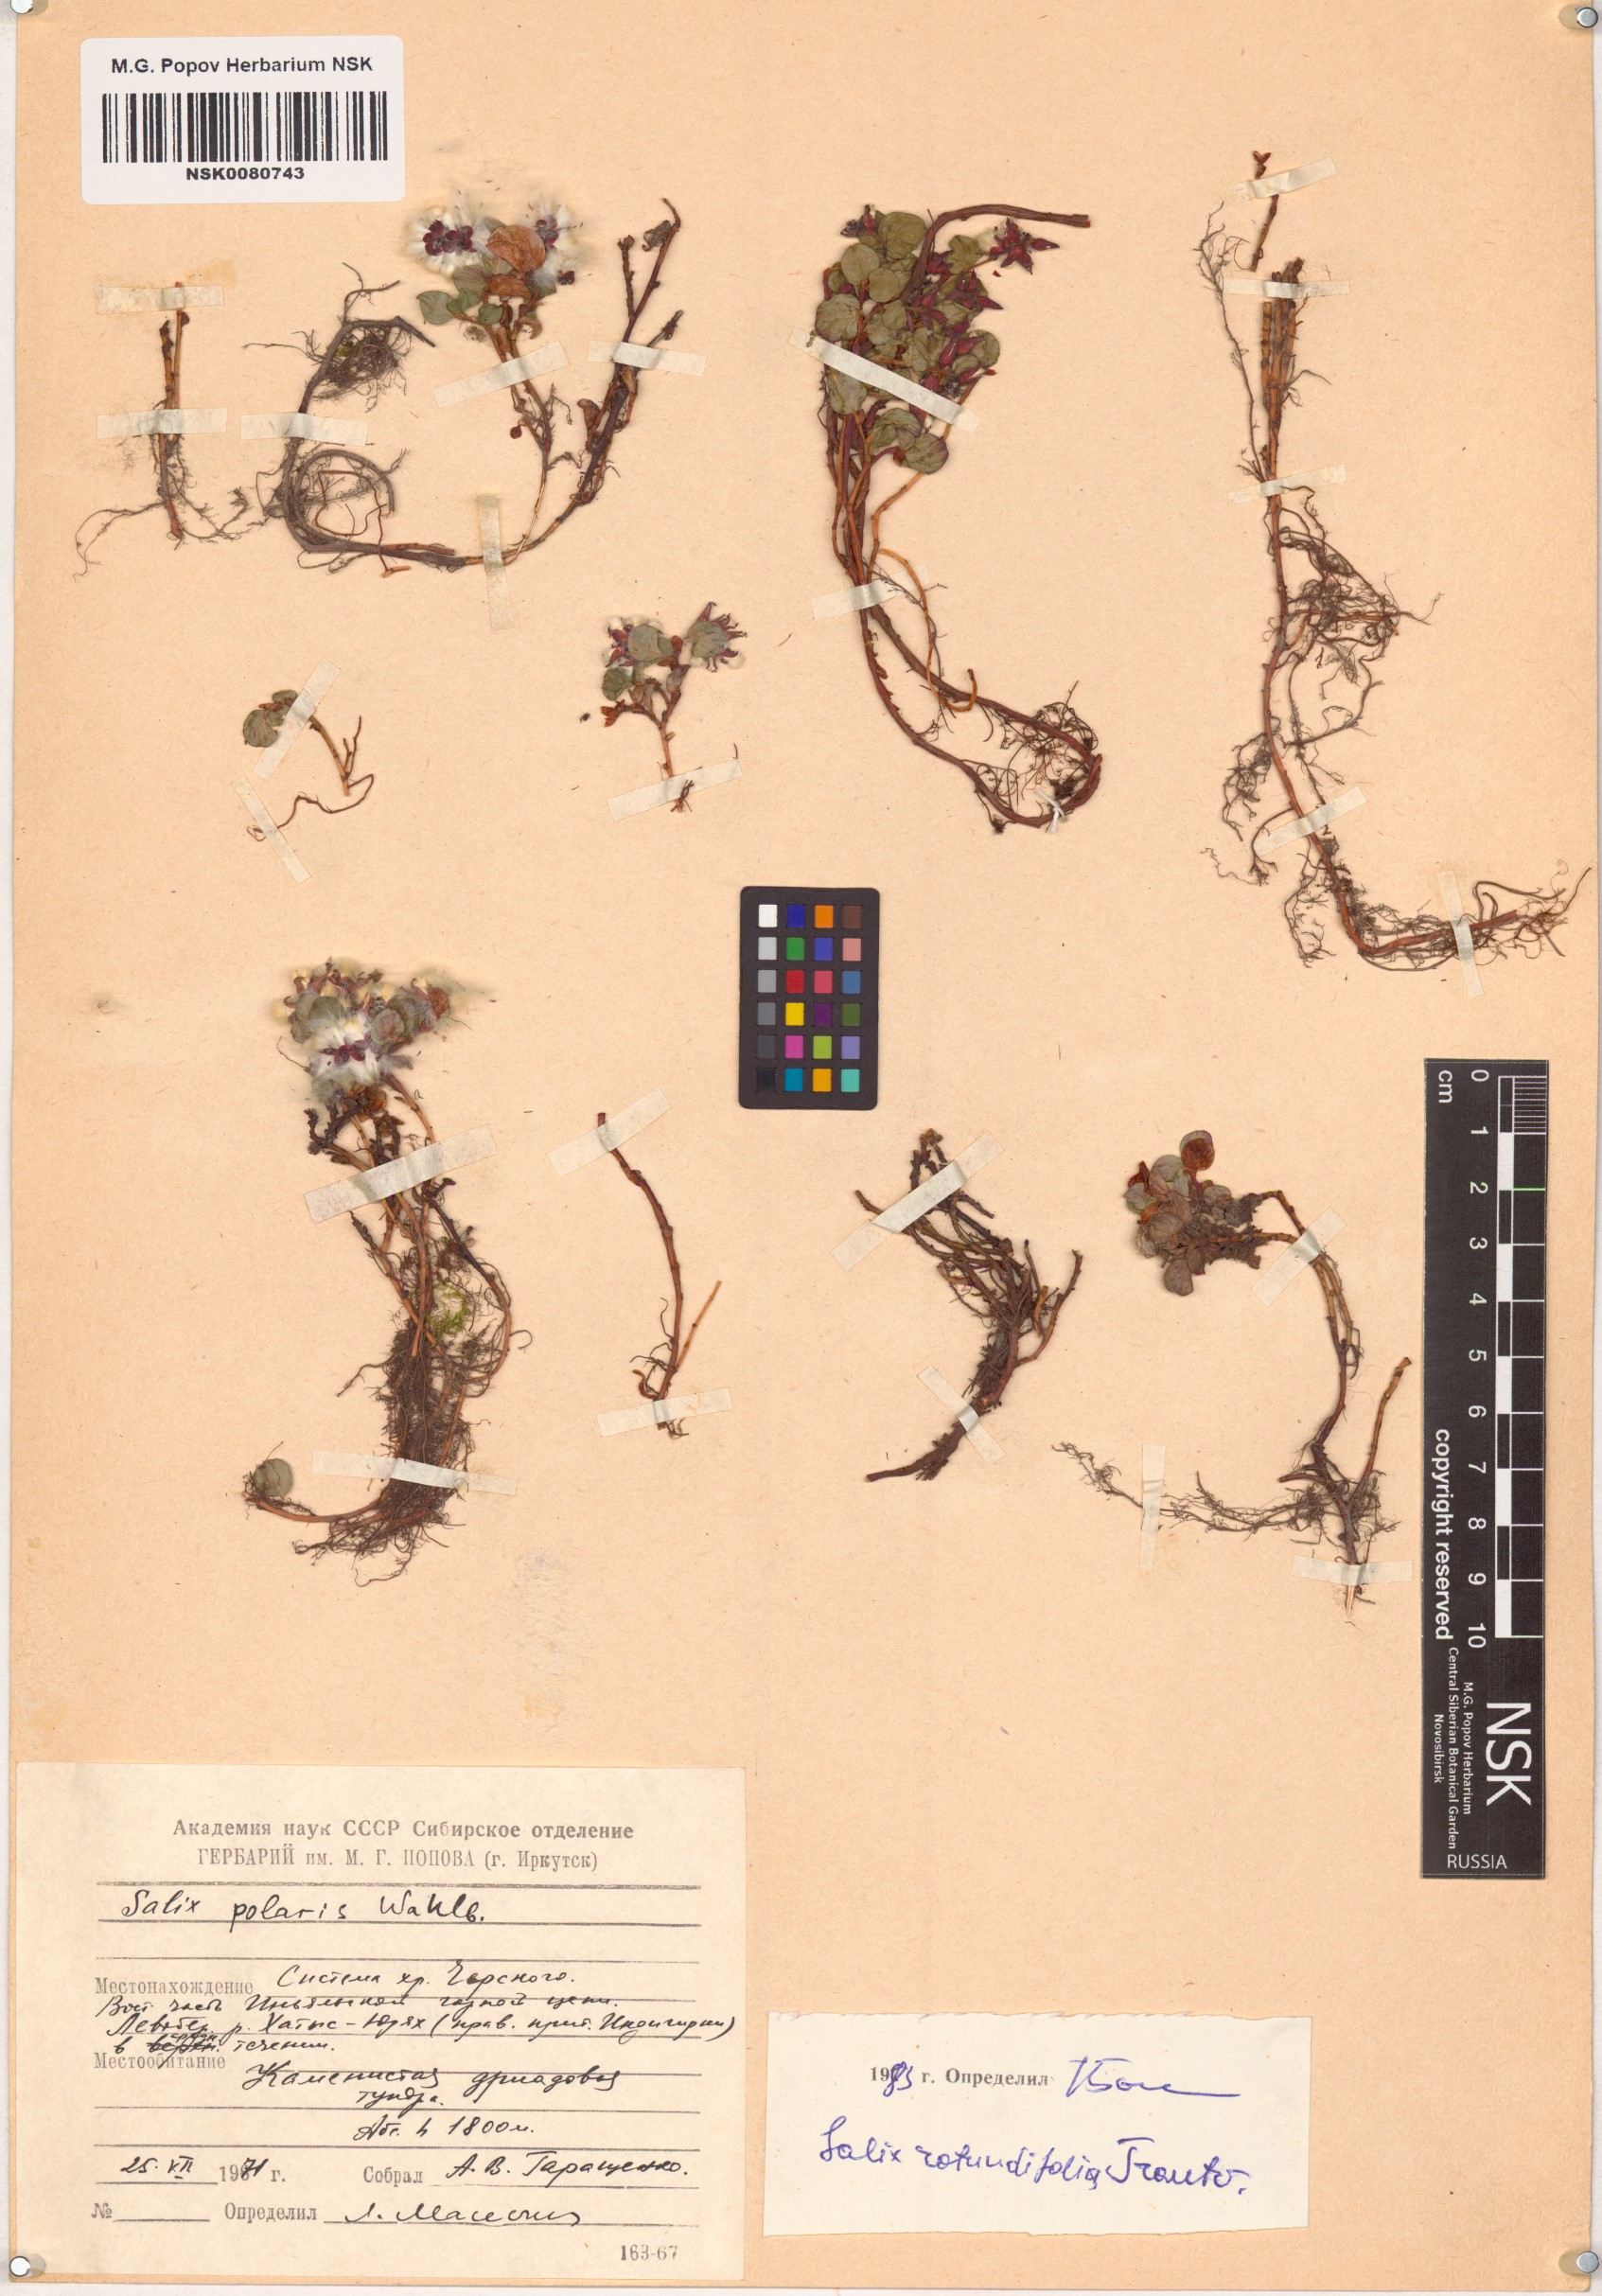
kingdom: Plantae
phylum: Tracheophyta
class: Magnoliopsida
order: Malpighiales
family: Salicaceae
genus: Salix
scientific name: Salix rotundifolia
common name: Least willow
